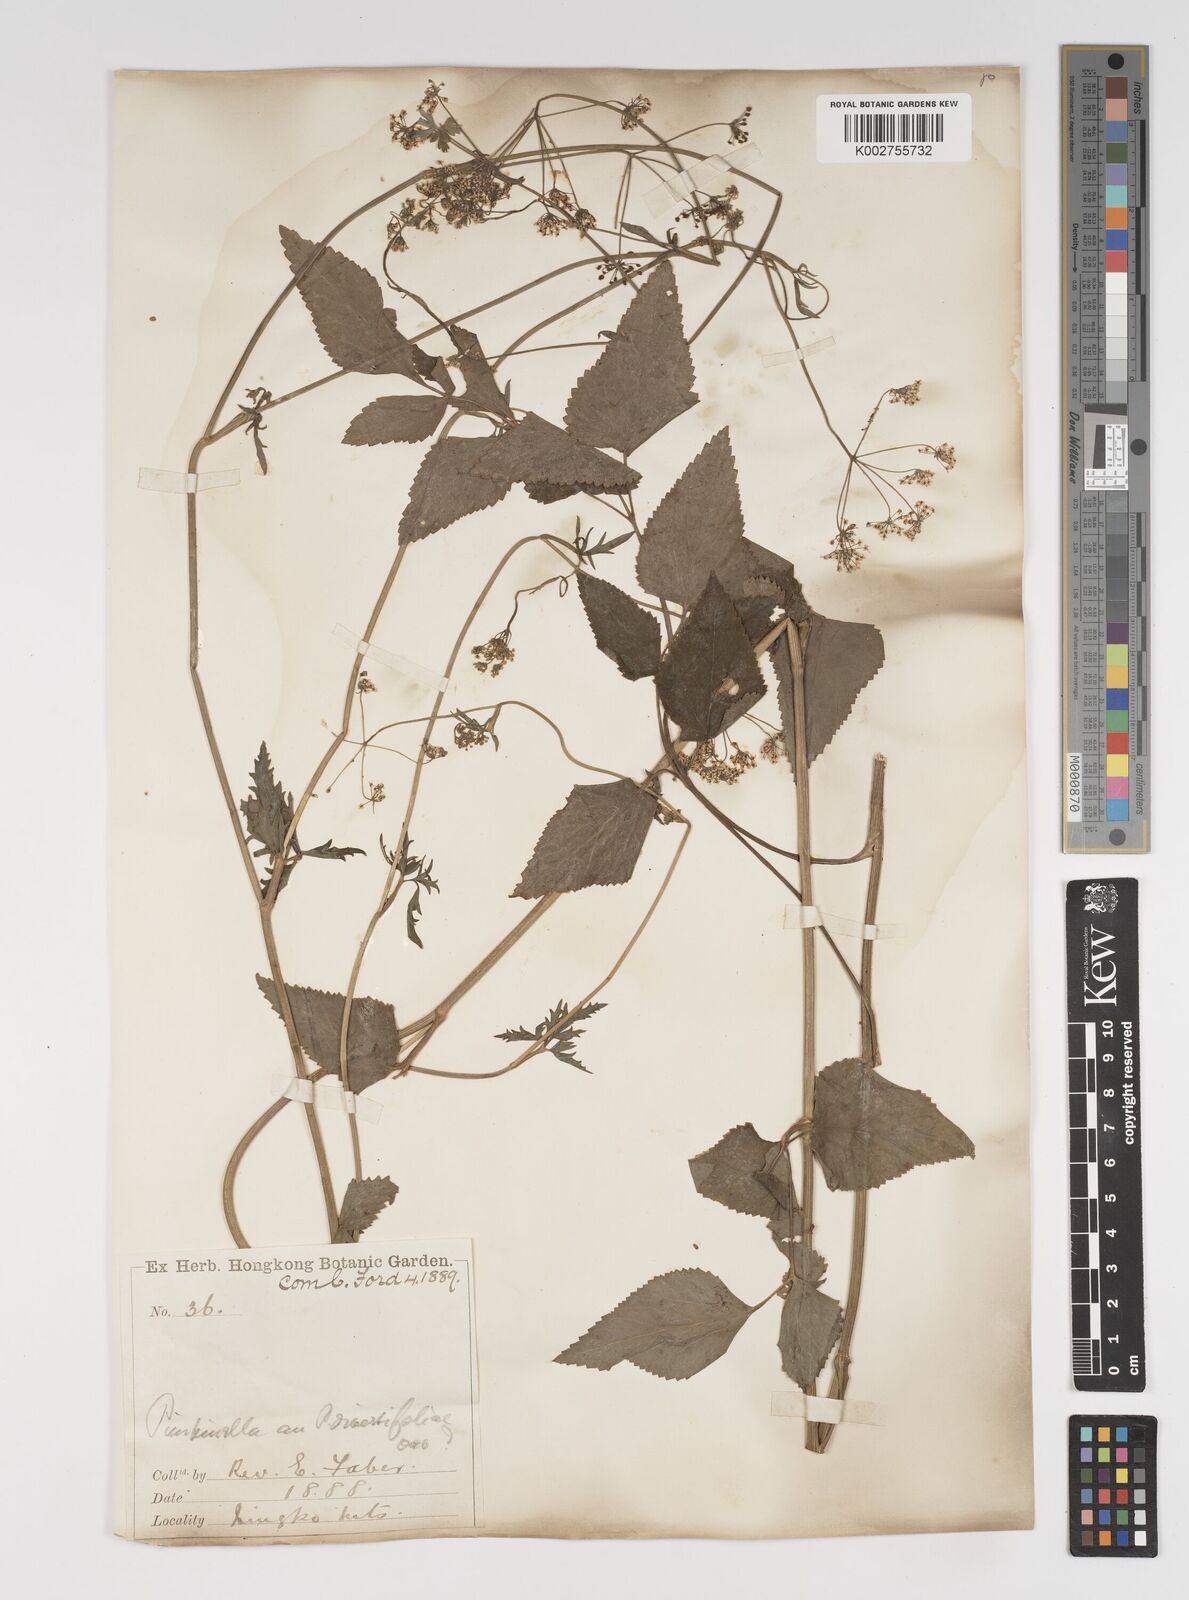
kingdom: Plantae
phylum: Tracheophyta
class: Magnoliopsida
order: Apiales
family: Apiaceae
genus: Pimpinella
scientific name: Pimpinella diversifolia
